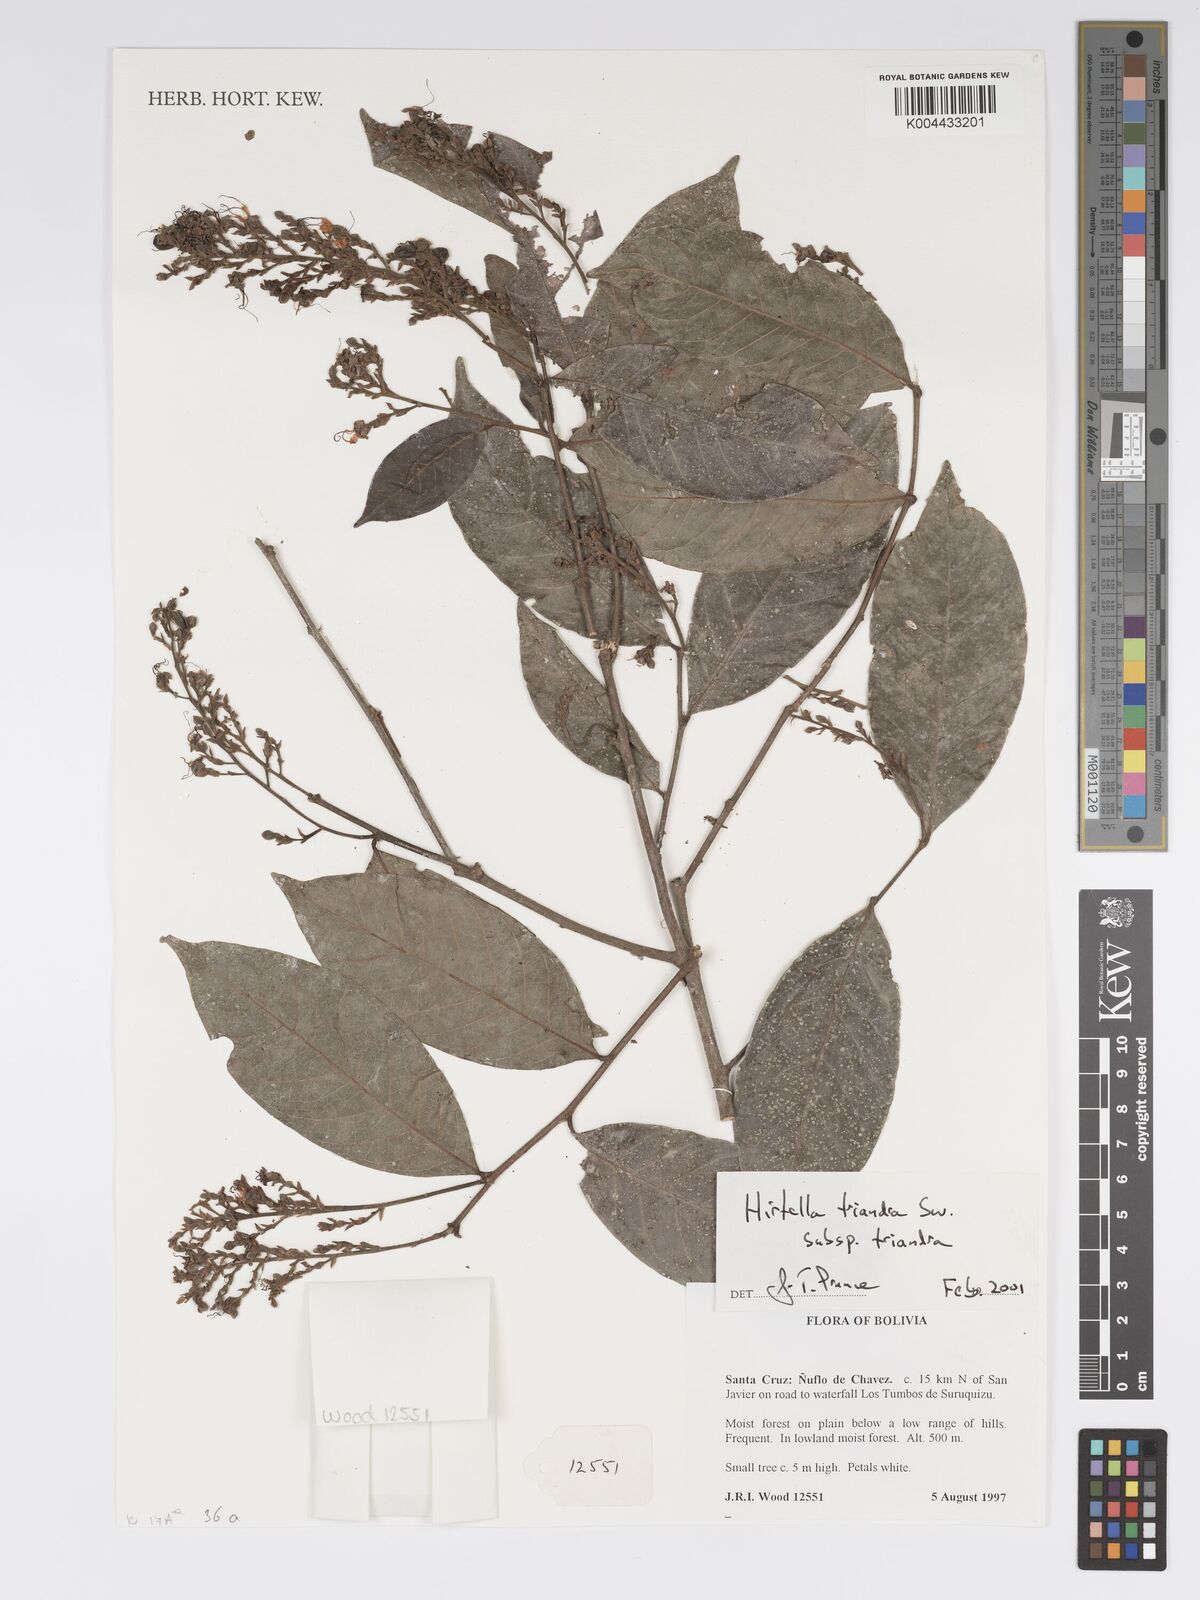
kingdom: Plantae
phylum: Tracheophyta
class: Magnoliopsida
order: Malpighiales
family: Chrysobalanaceae
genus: Hirtella
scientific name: Hirtella triandra
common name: Hairy plum
